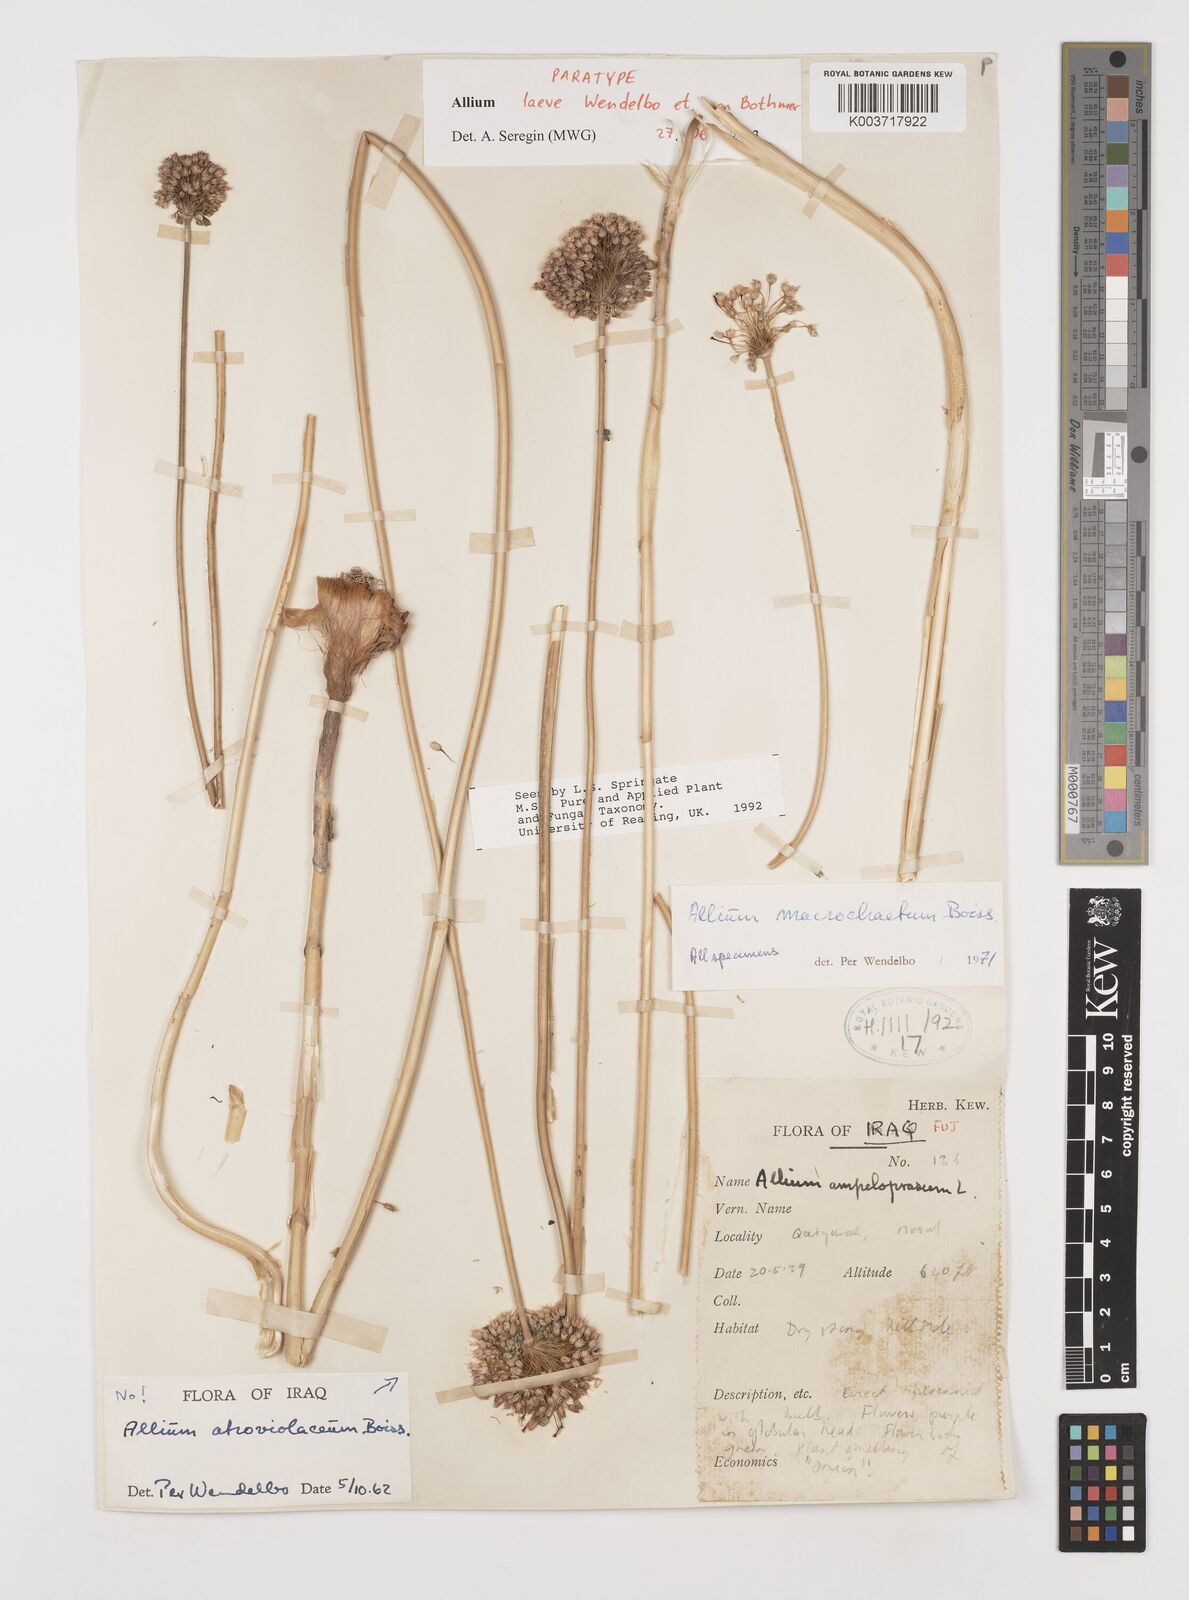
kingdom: Plantae
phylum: Tracheophyta
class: Liliopsida
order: Asparagales
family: Amaryllidaceae
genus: Allium
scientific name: Allium macrochaetum
